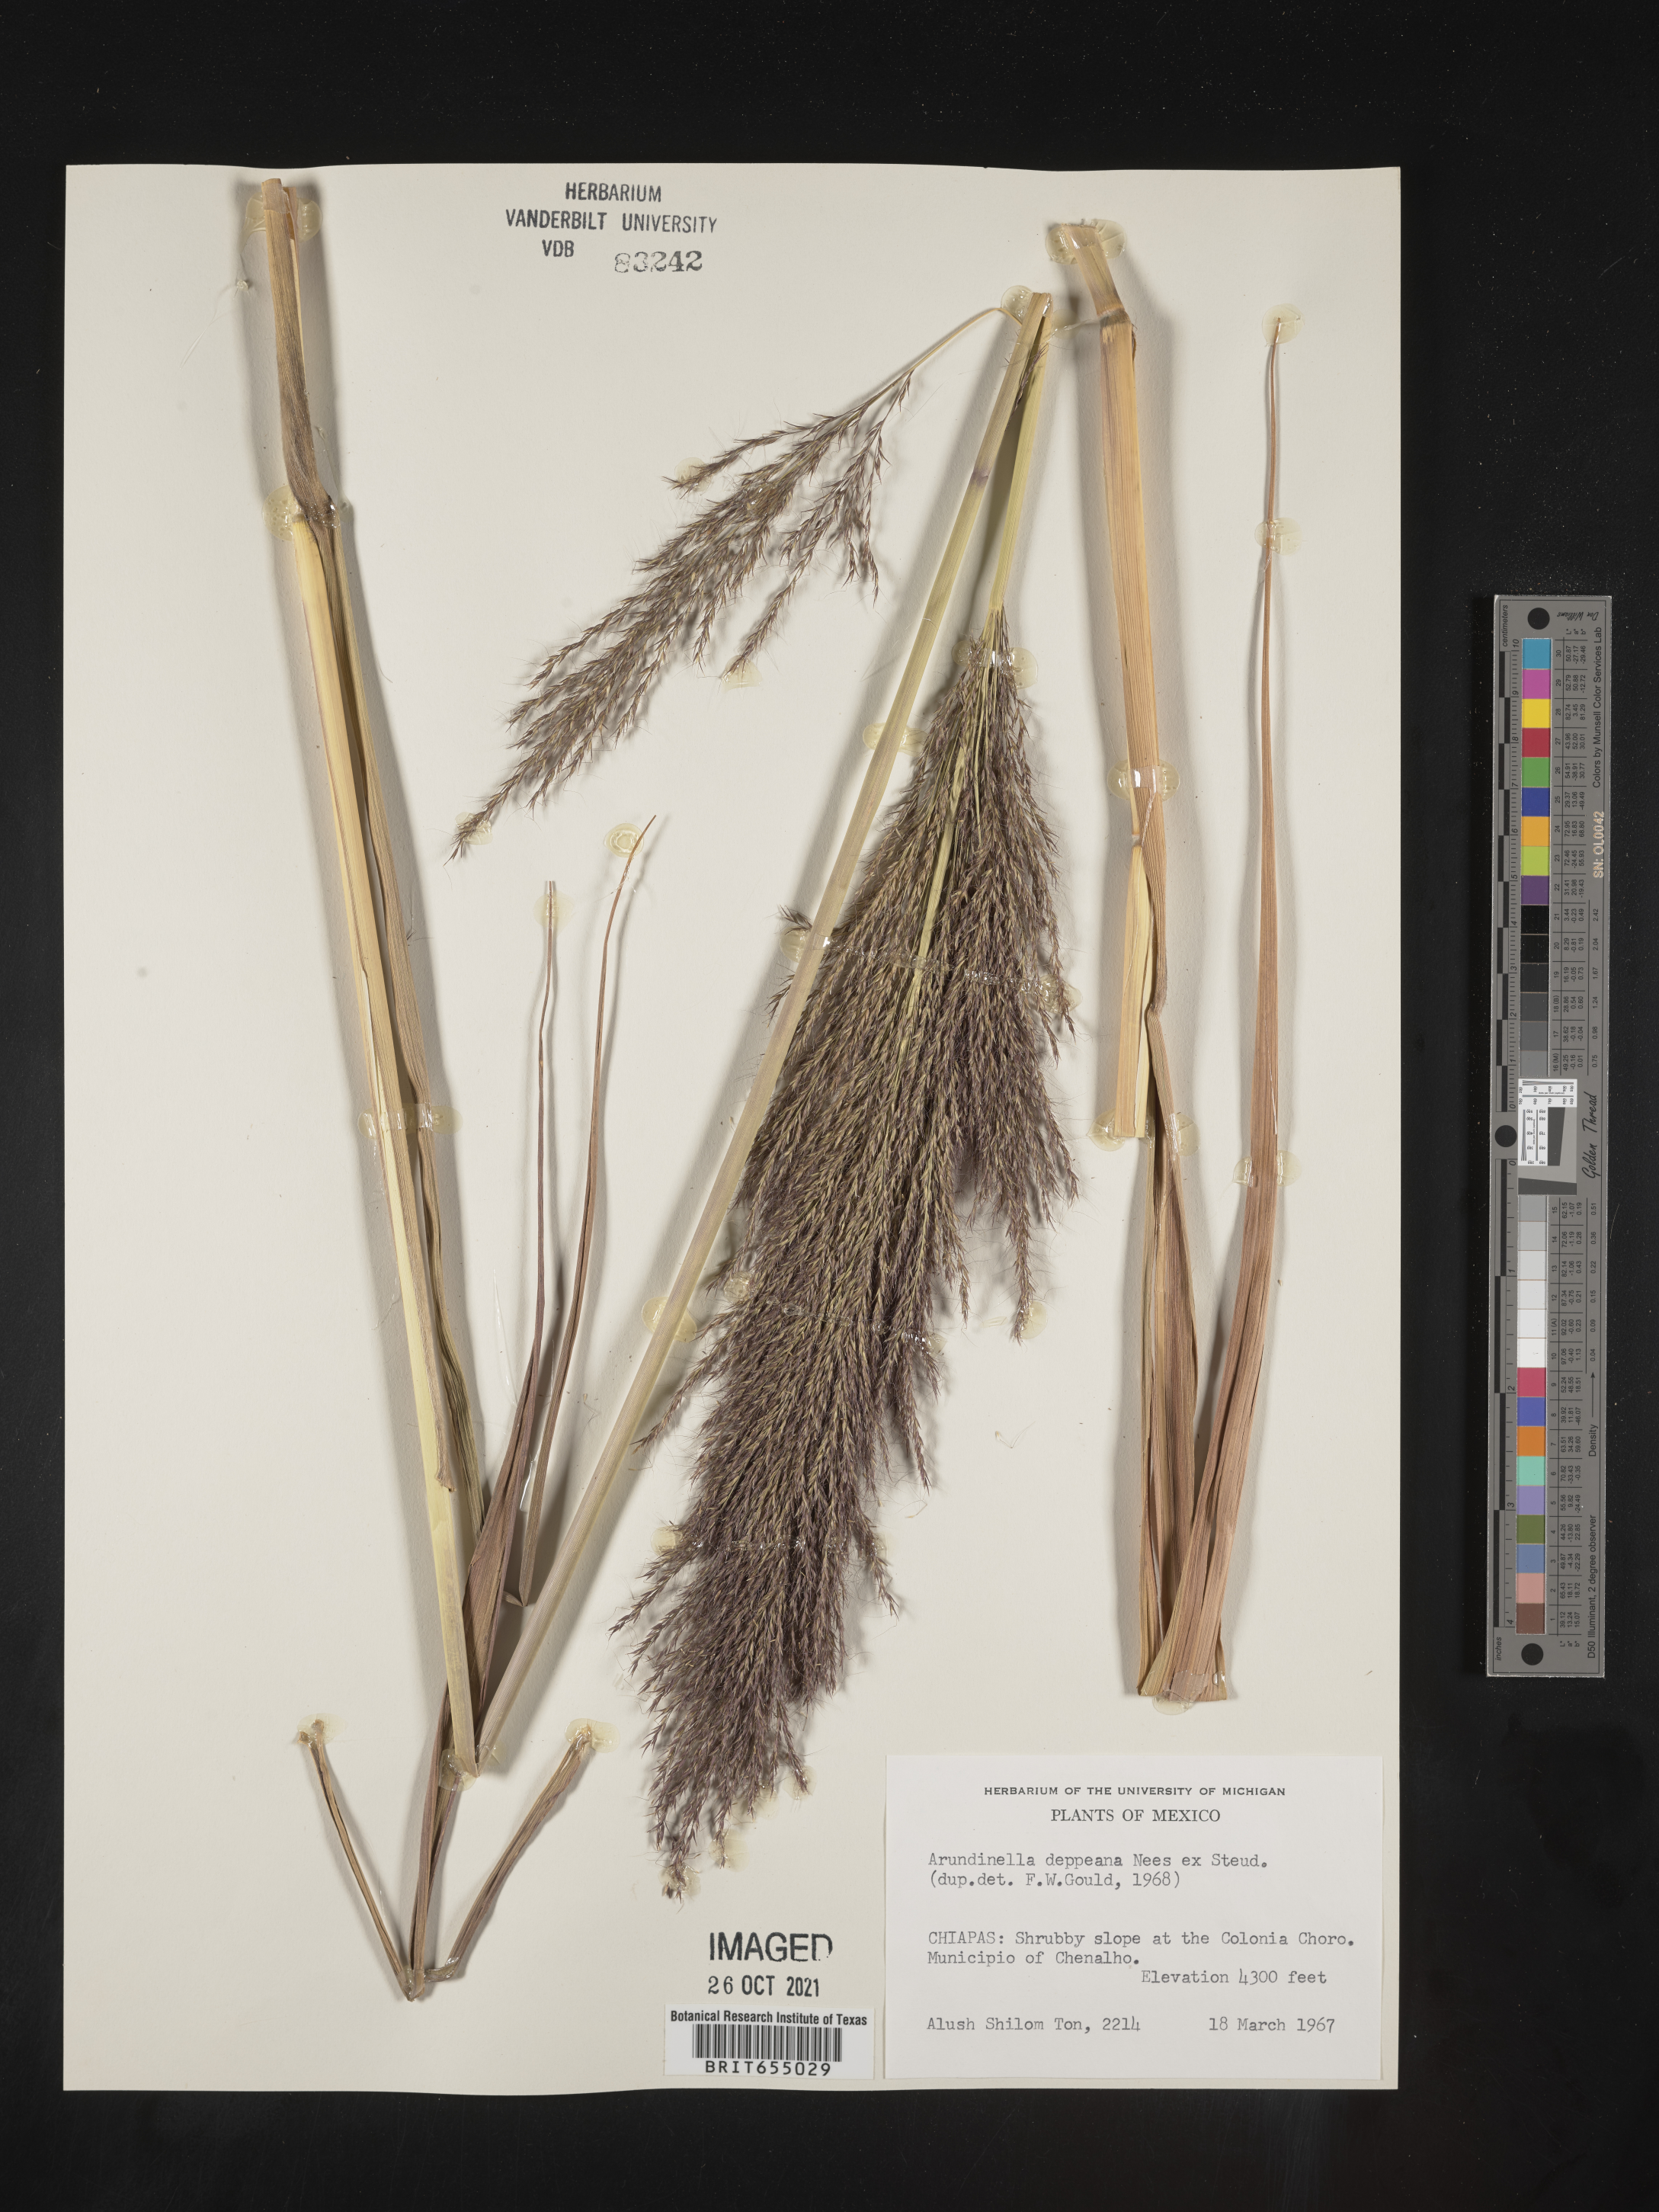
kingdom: Plantae
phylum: Tracheophyta
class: Liliopsida
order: Poales
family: Poaceae
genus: Arundinella
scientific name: Arundinella
